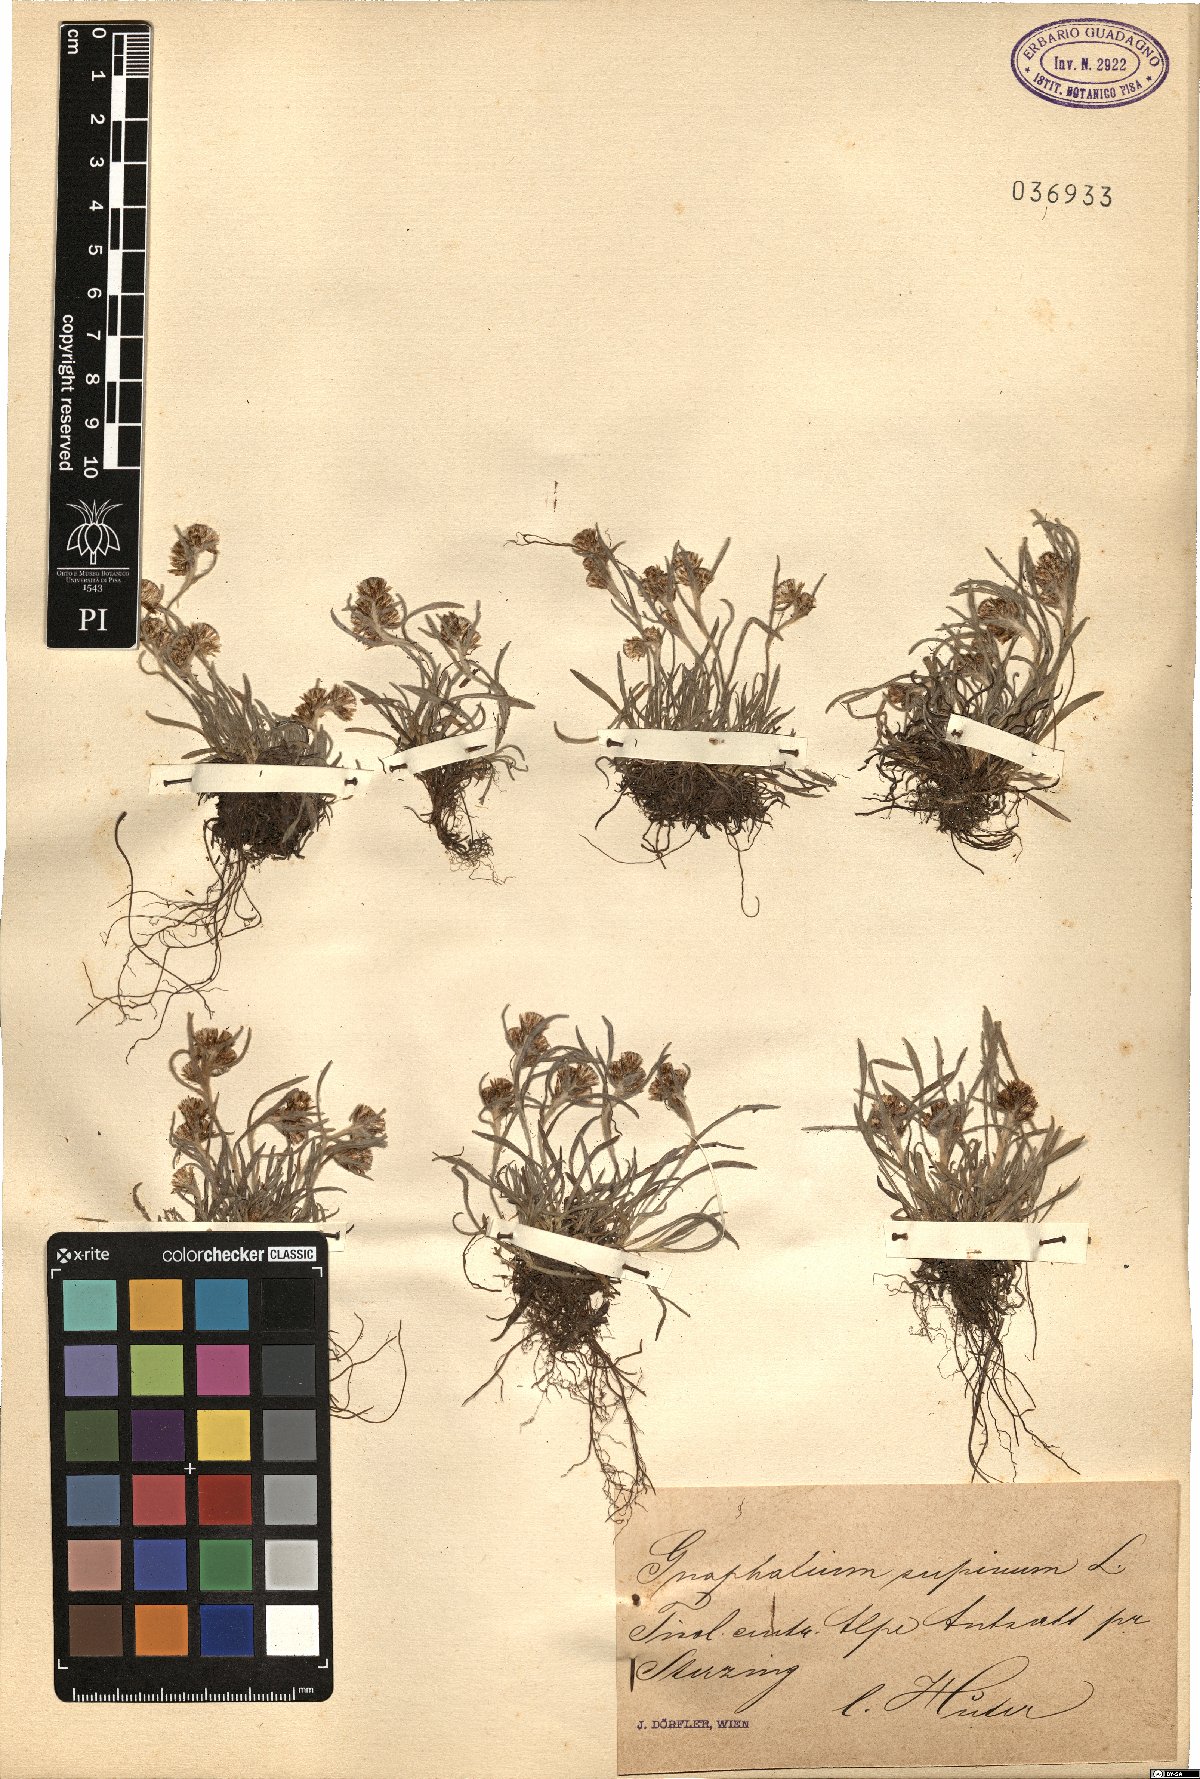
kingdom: Plantae
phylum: Tracheophyta
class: Magnoliopsida
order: Asterales
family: Asteraceae
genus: Omalotheca
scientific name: Omalotheca supina
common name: Alpine arctic-cudweed
